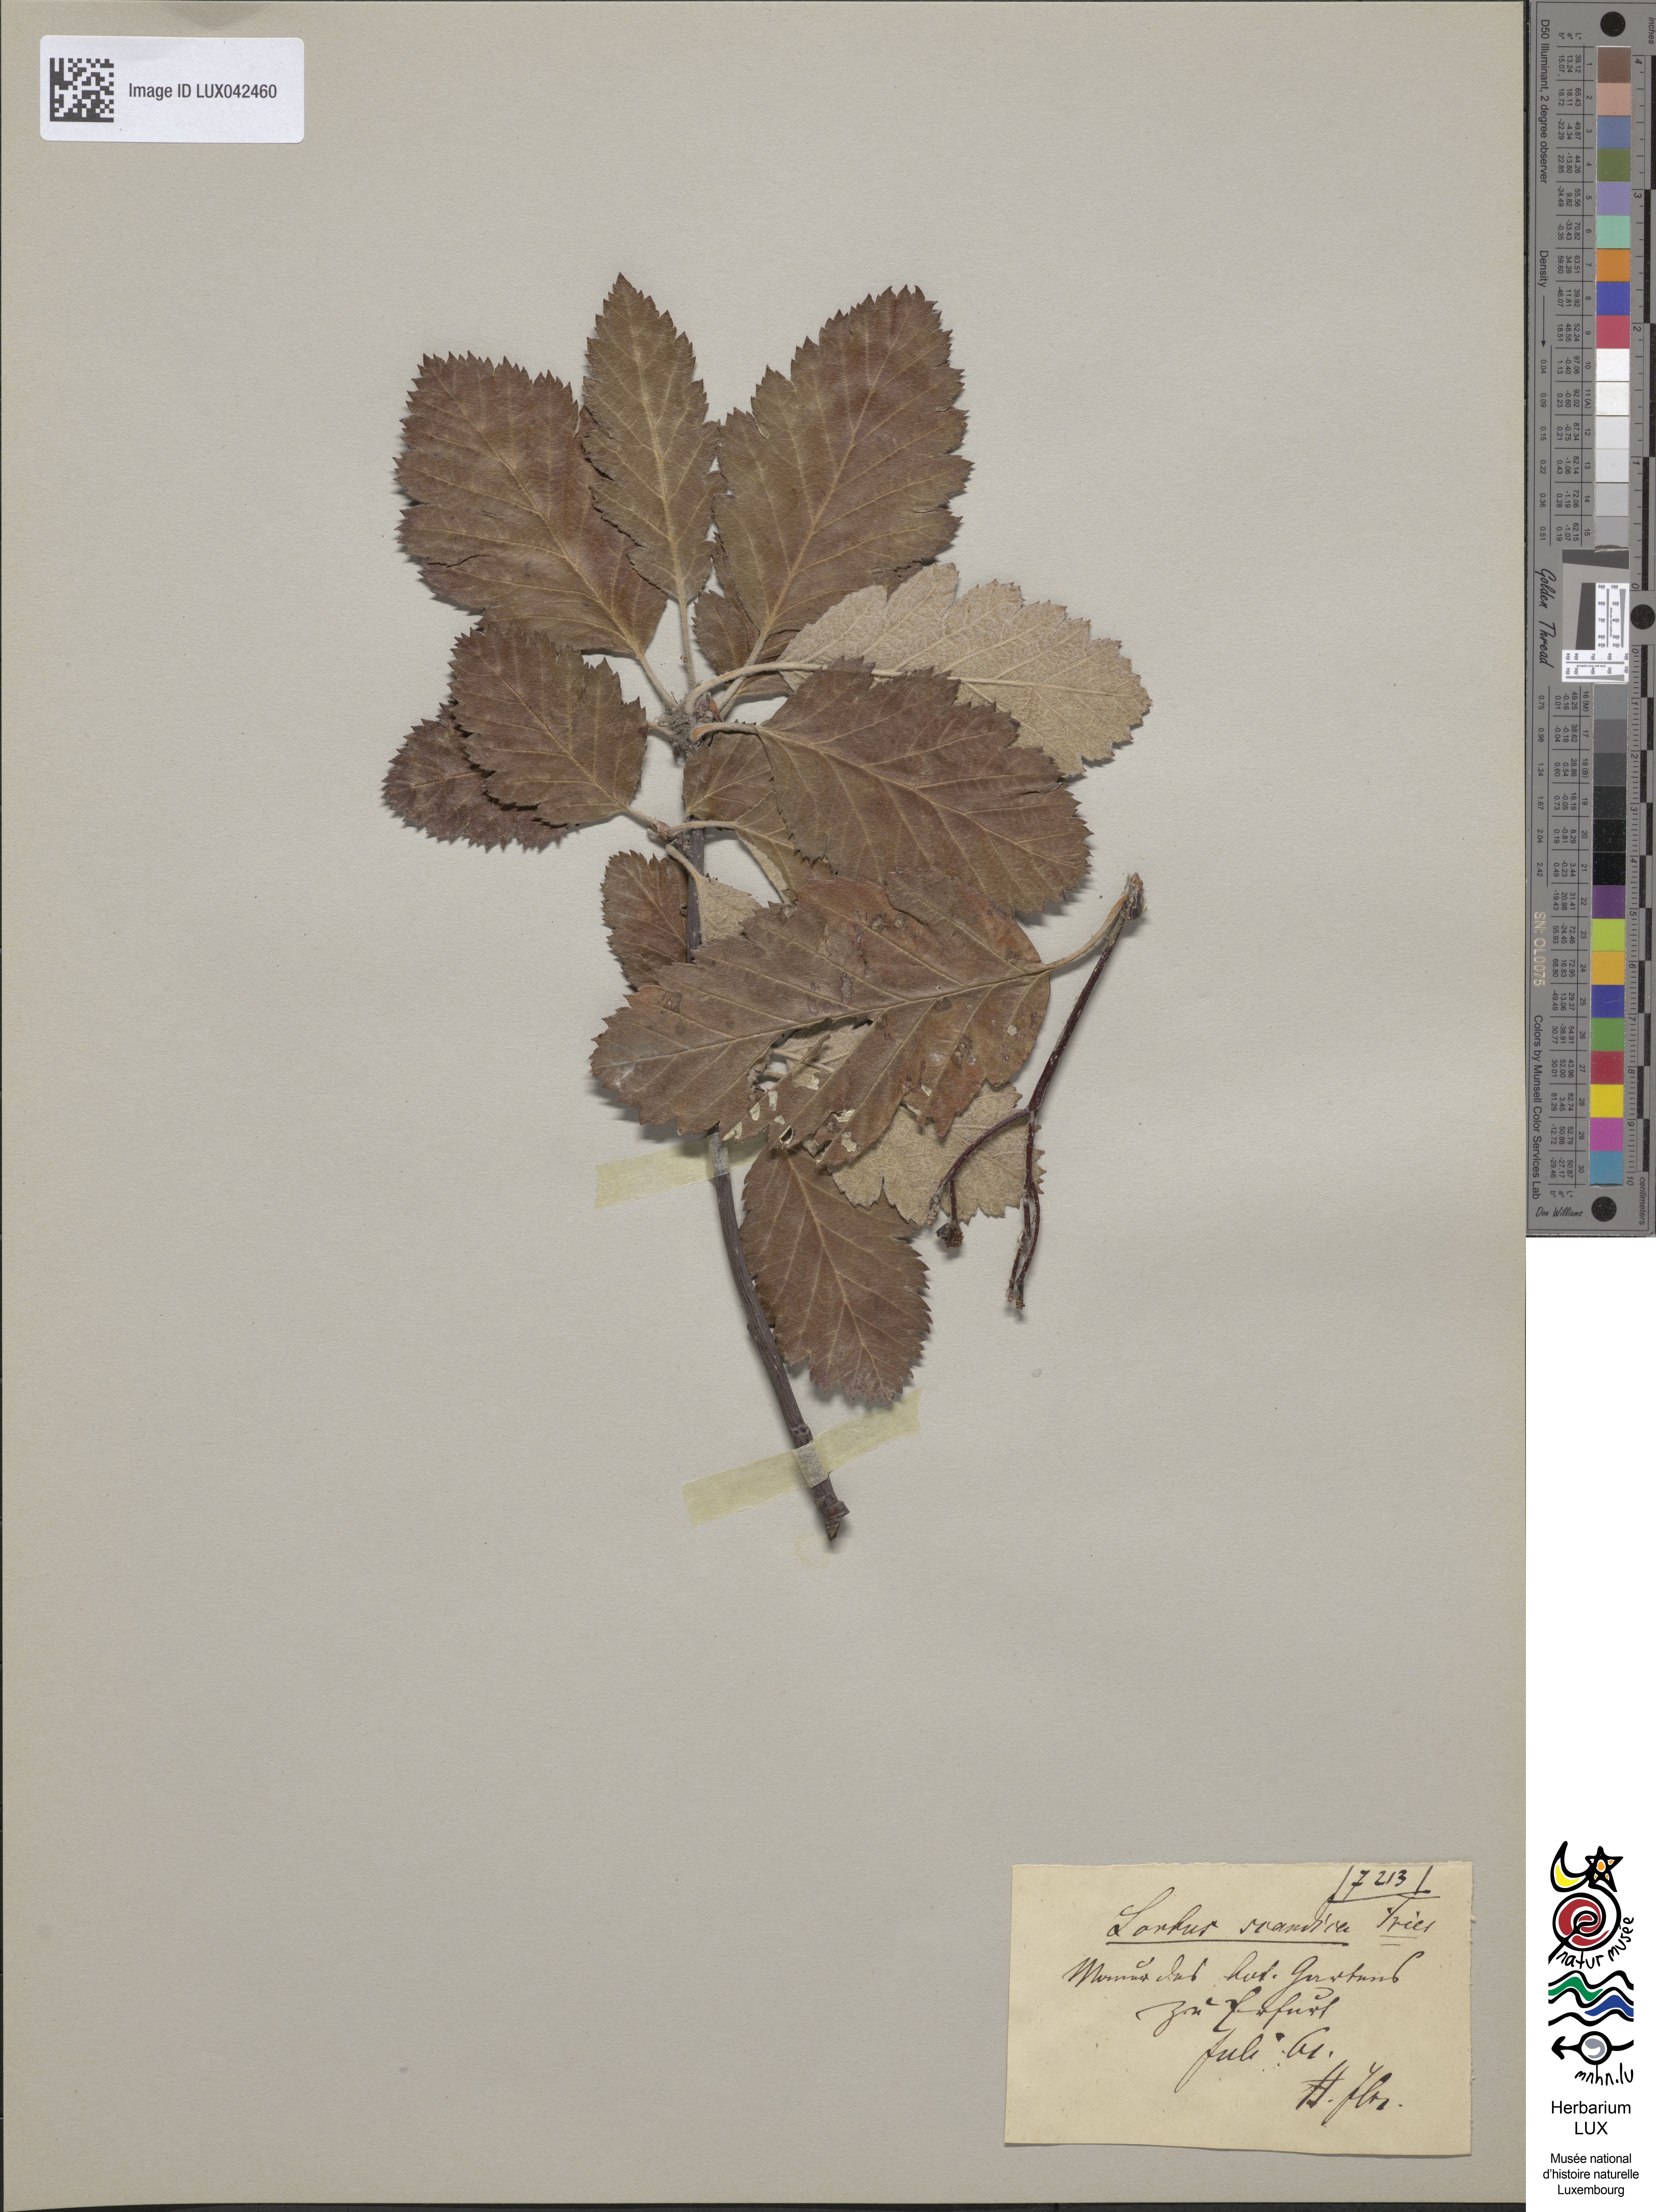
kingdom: Plantae
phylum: Tracheophyta
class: Magnoliopsida
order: Rosales
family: Rosaceae
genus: Scandosorbus
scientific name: Scandosorbus intermedia
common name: Swedish whitebeam
